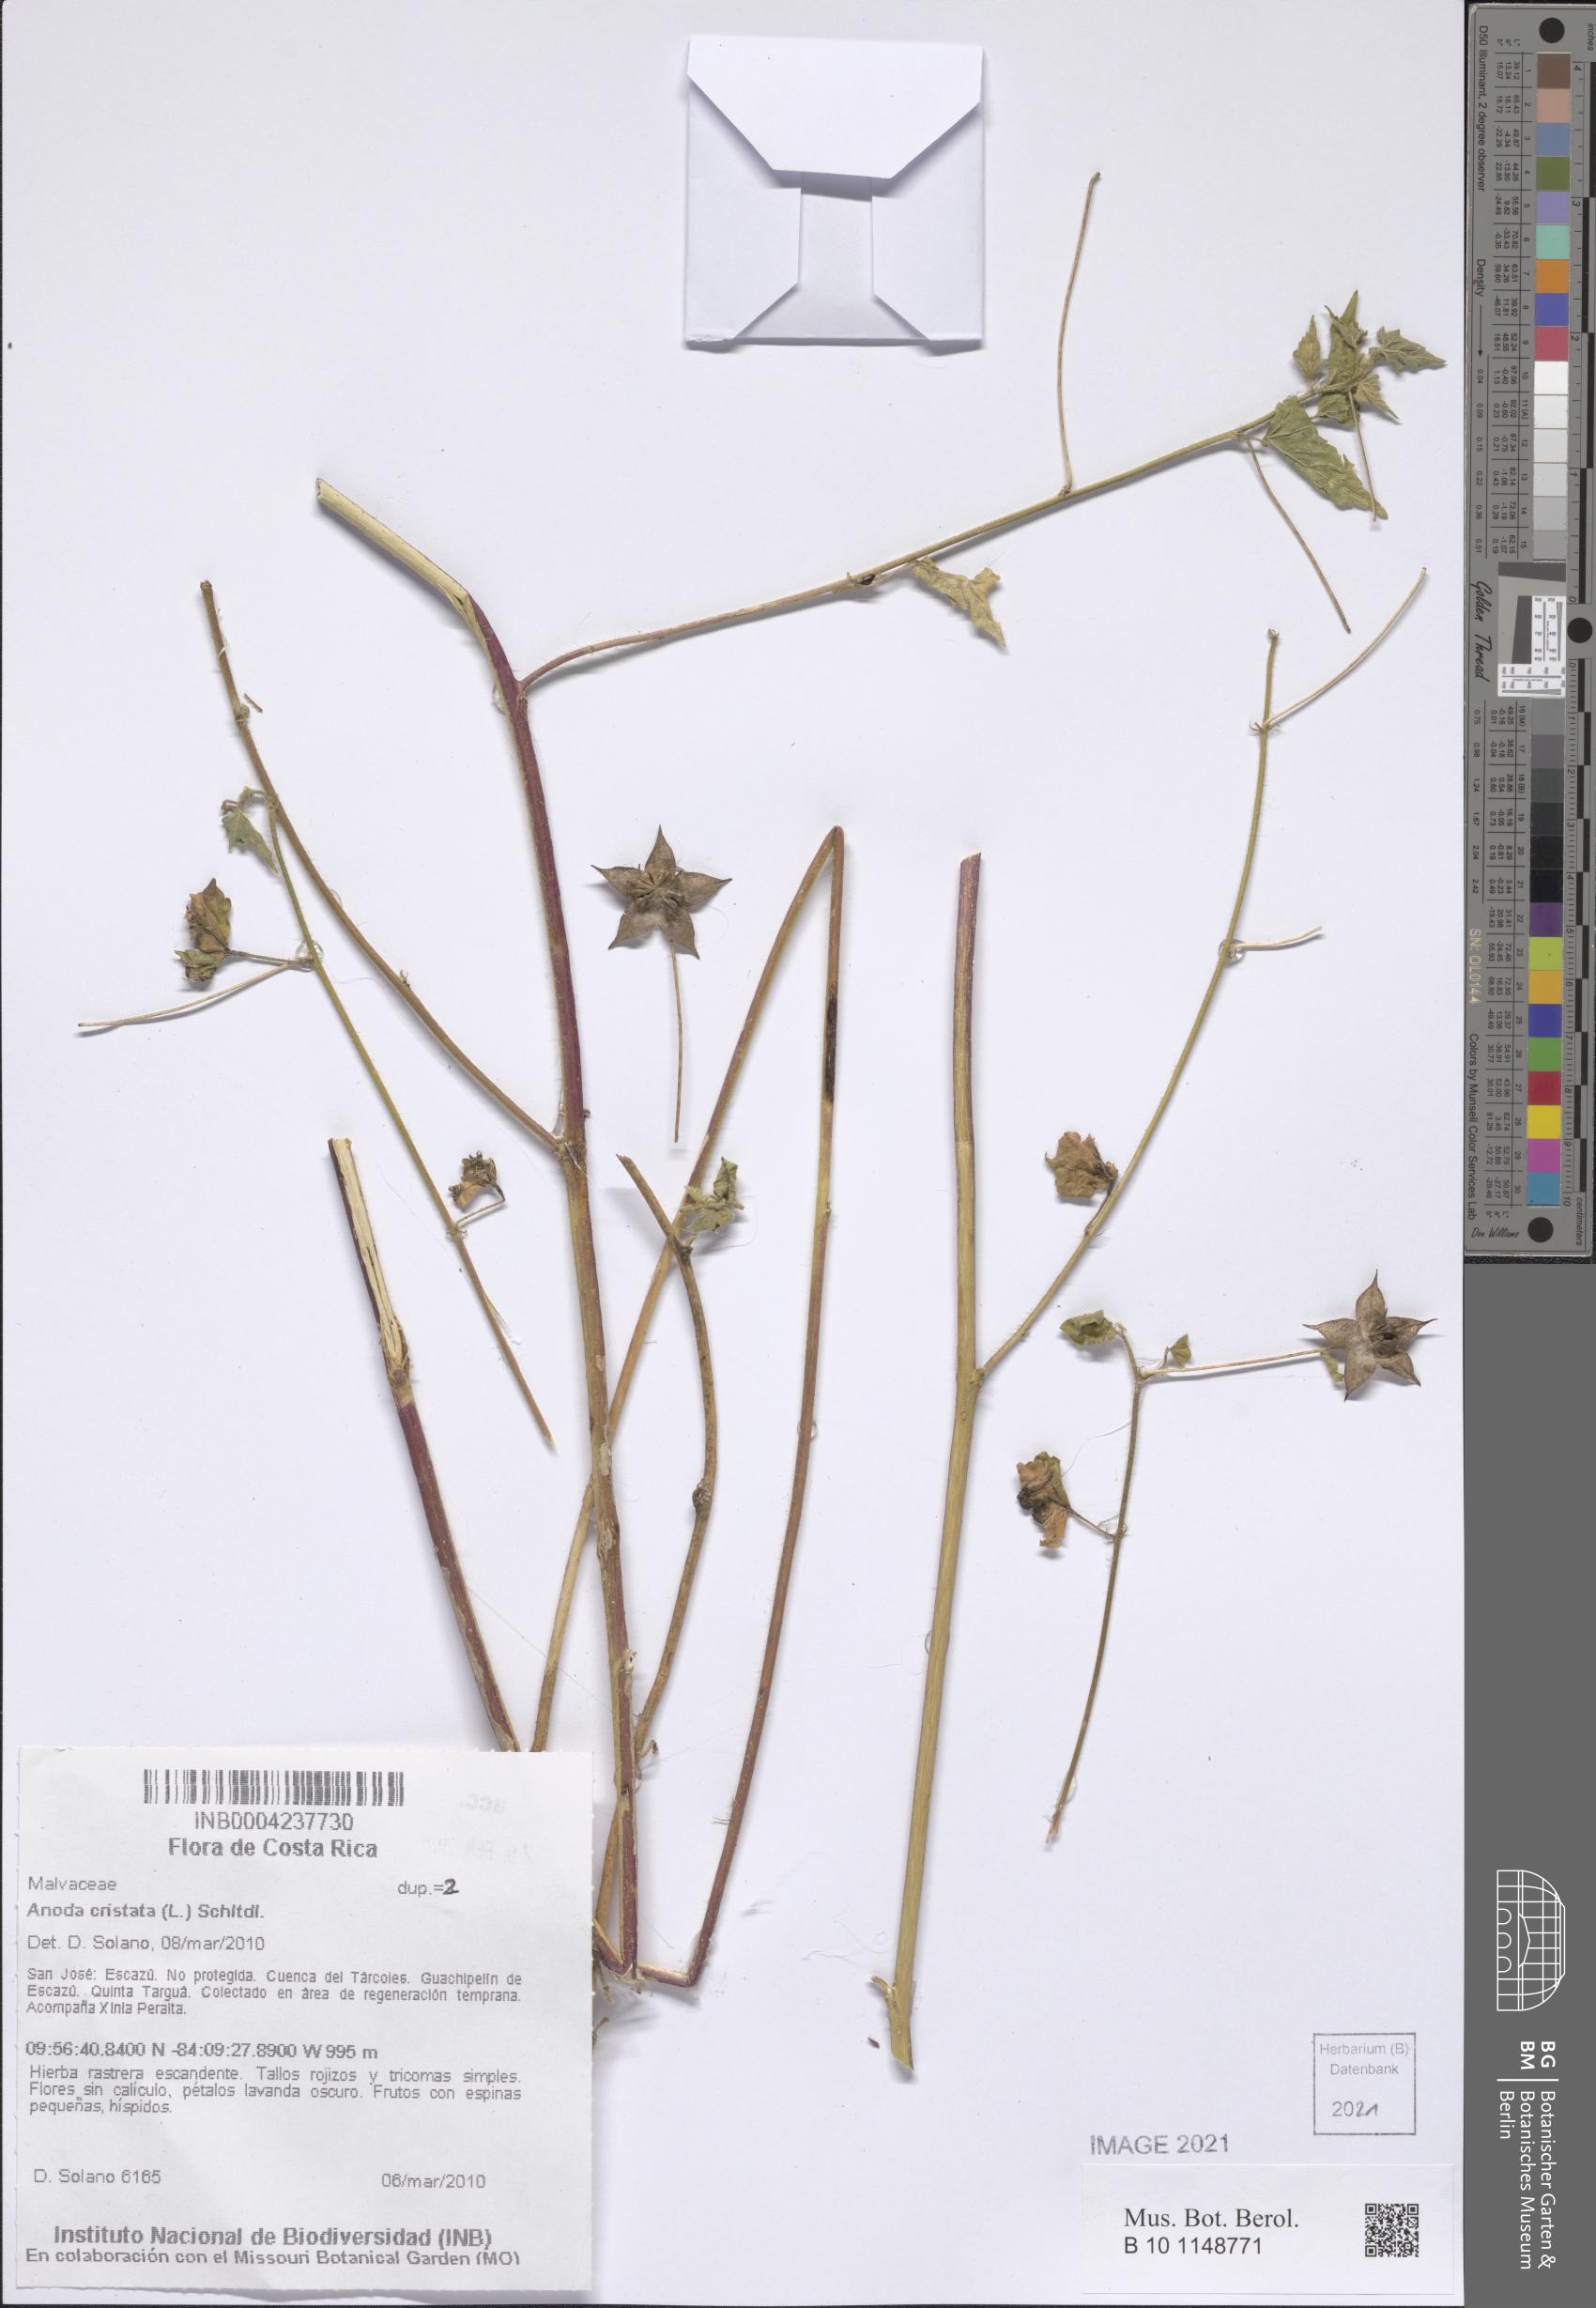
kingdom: Plantae
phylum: Tracheophyta
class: Magnoliopsida
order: Malvales
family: Malvaceae
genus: Anoda
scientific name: Anoda cristata
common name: Spurred anoda
